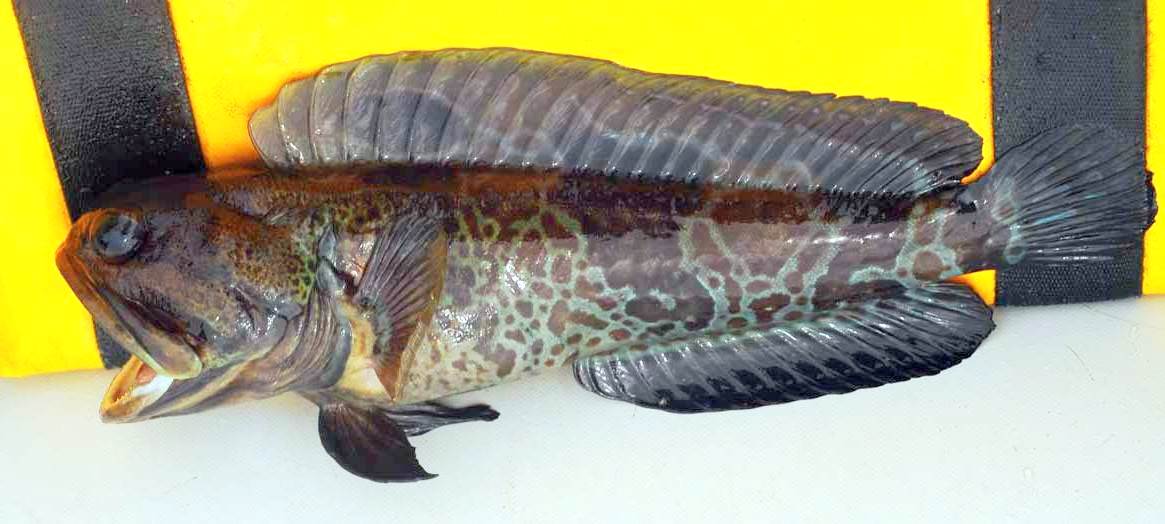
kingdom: Animalia
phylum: Chordata
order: Perciformes
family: Opistognathidae
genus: Opistognathus
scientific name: Opistognathus muscatensis
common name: Robust jawfish
